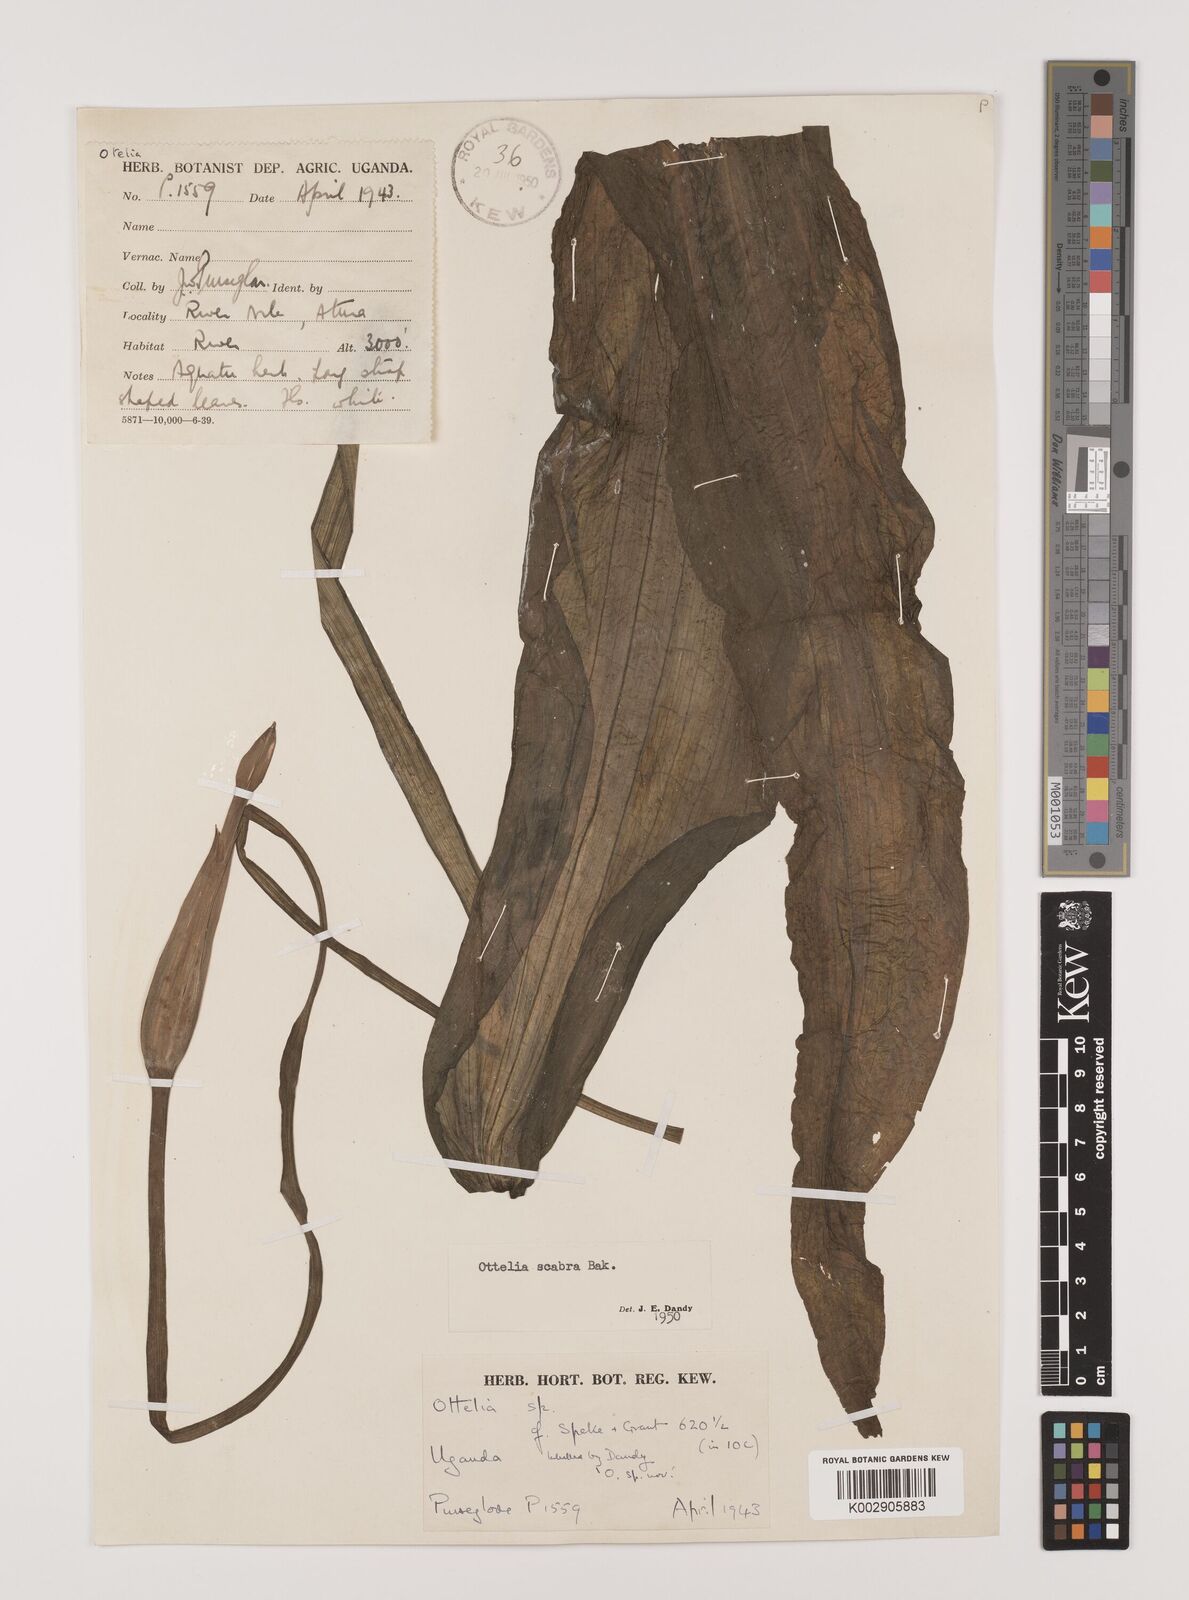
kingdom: Plantae
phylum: Tracheophyta
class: Liliopsida
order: Alismatales
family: Hydrocharitaceae
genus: Ottelia
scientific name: Ottelia scabra
